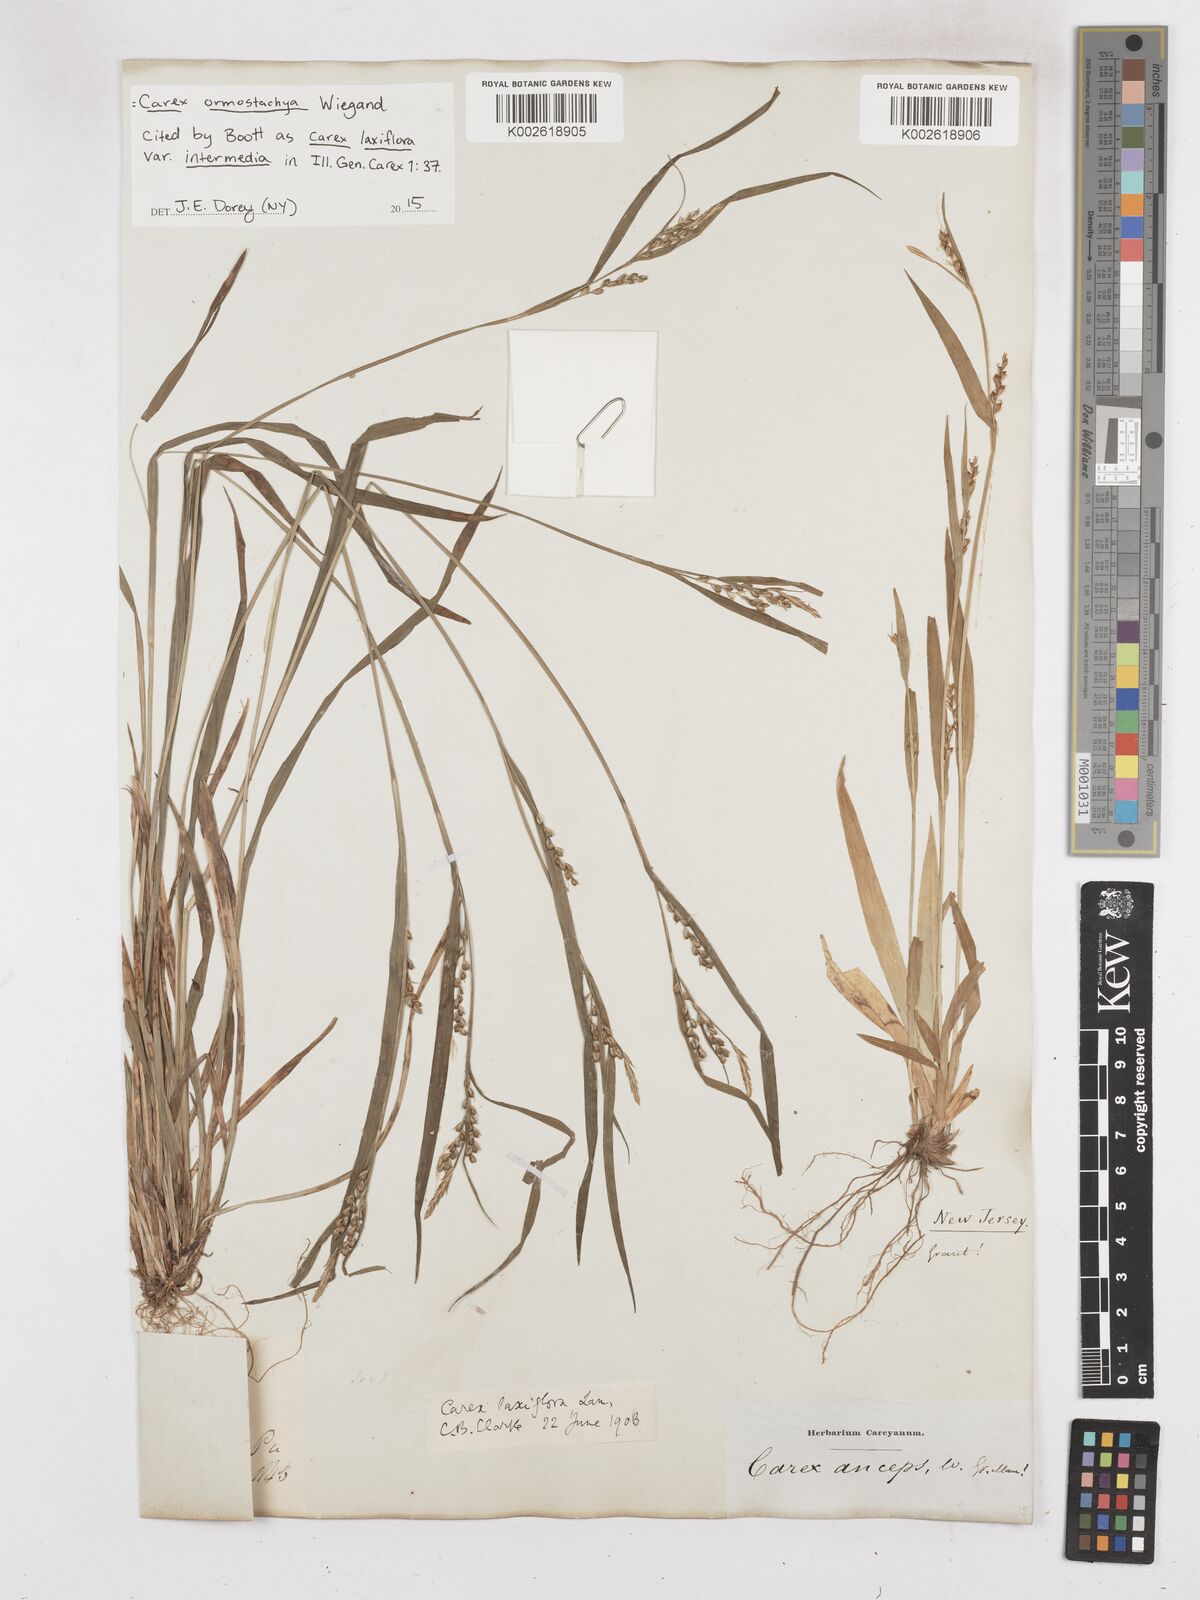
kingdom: Plantae
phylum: Tracheophyta
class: Liliopsida
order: Poales
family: Cyperaceae
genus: Carex
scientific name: Carex ormostachya
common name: Necklace spike sedge
